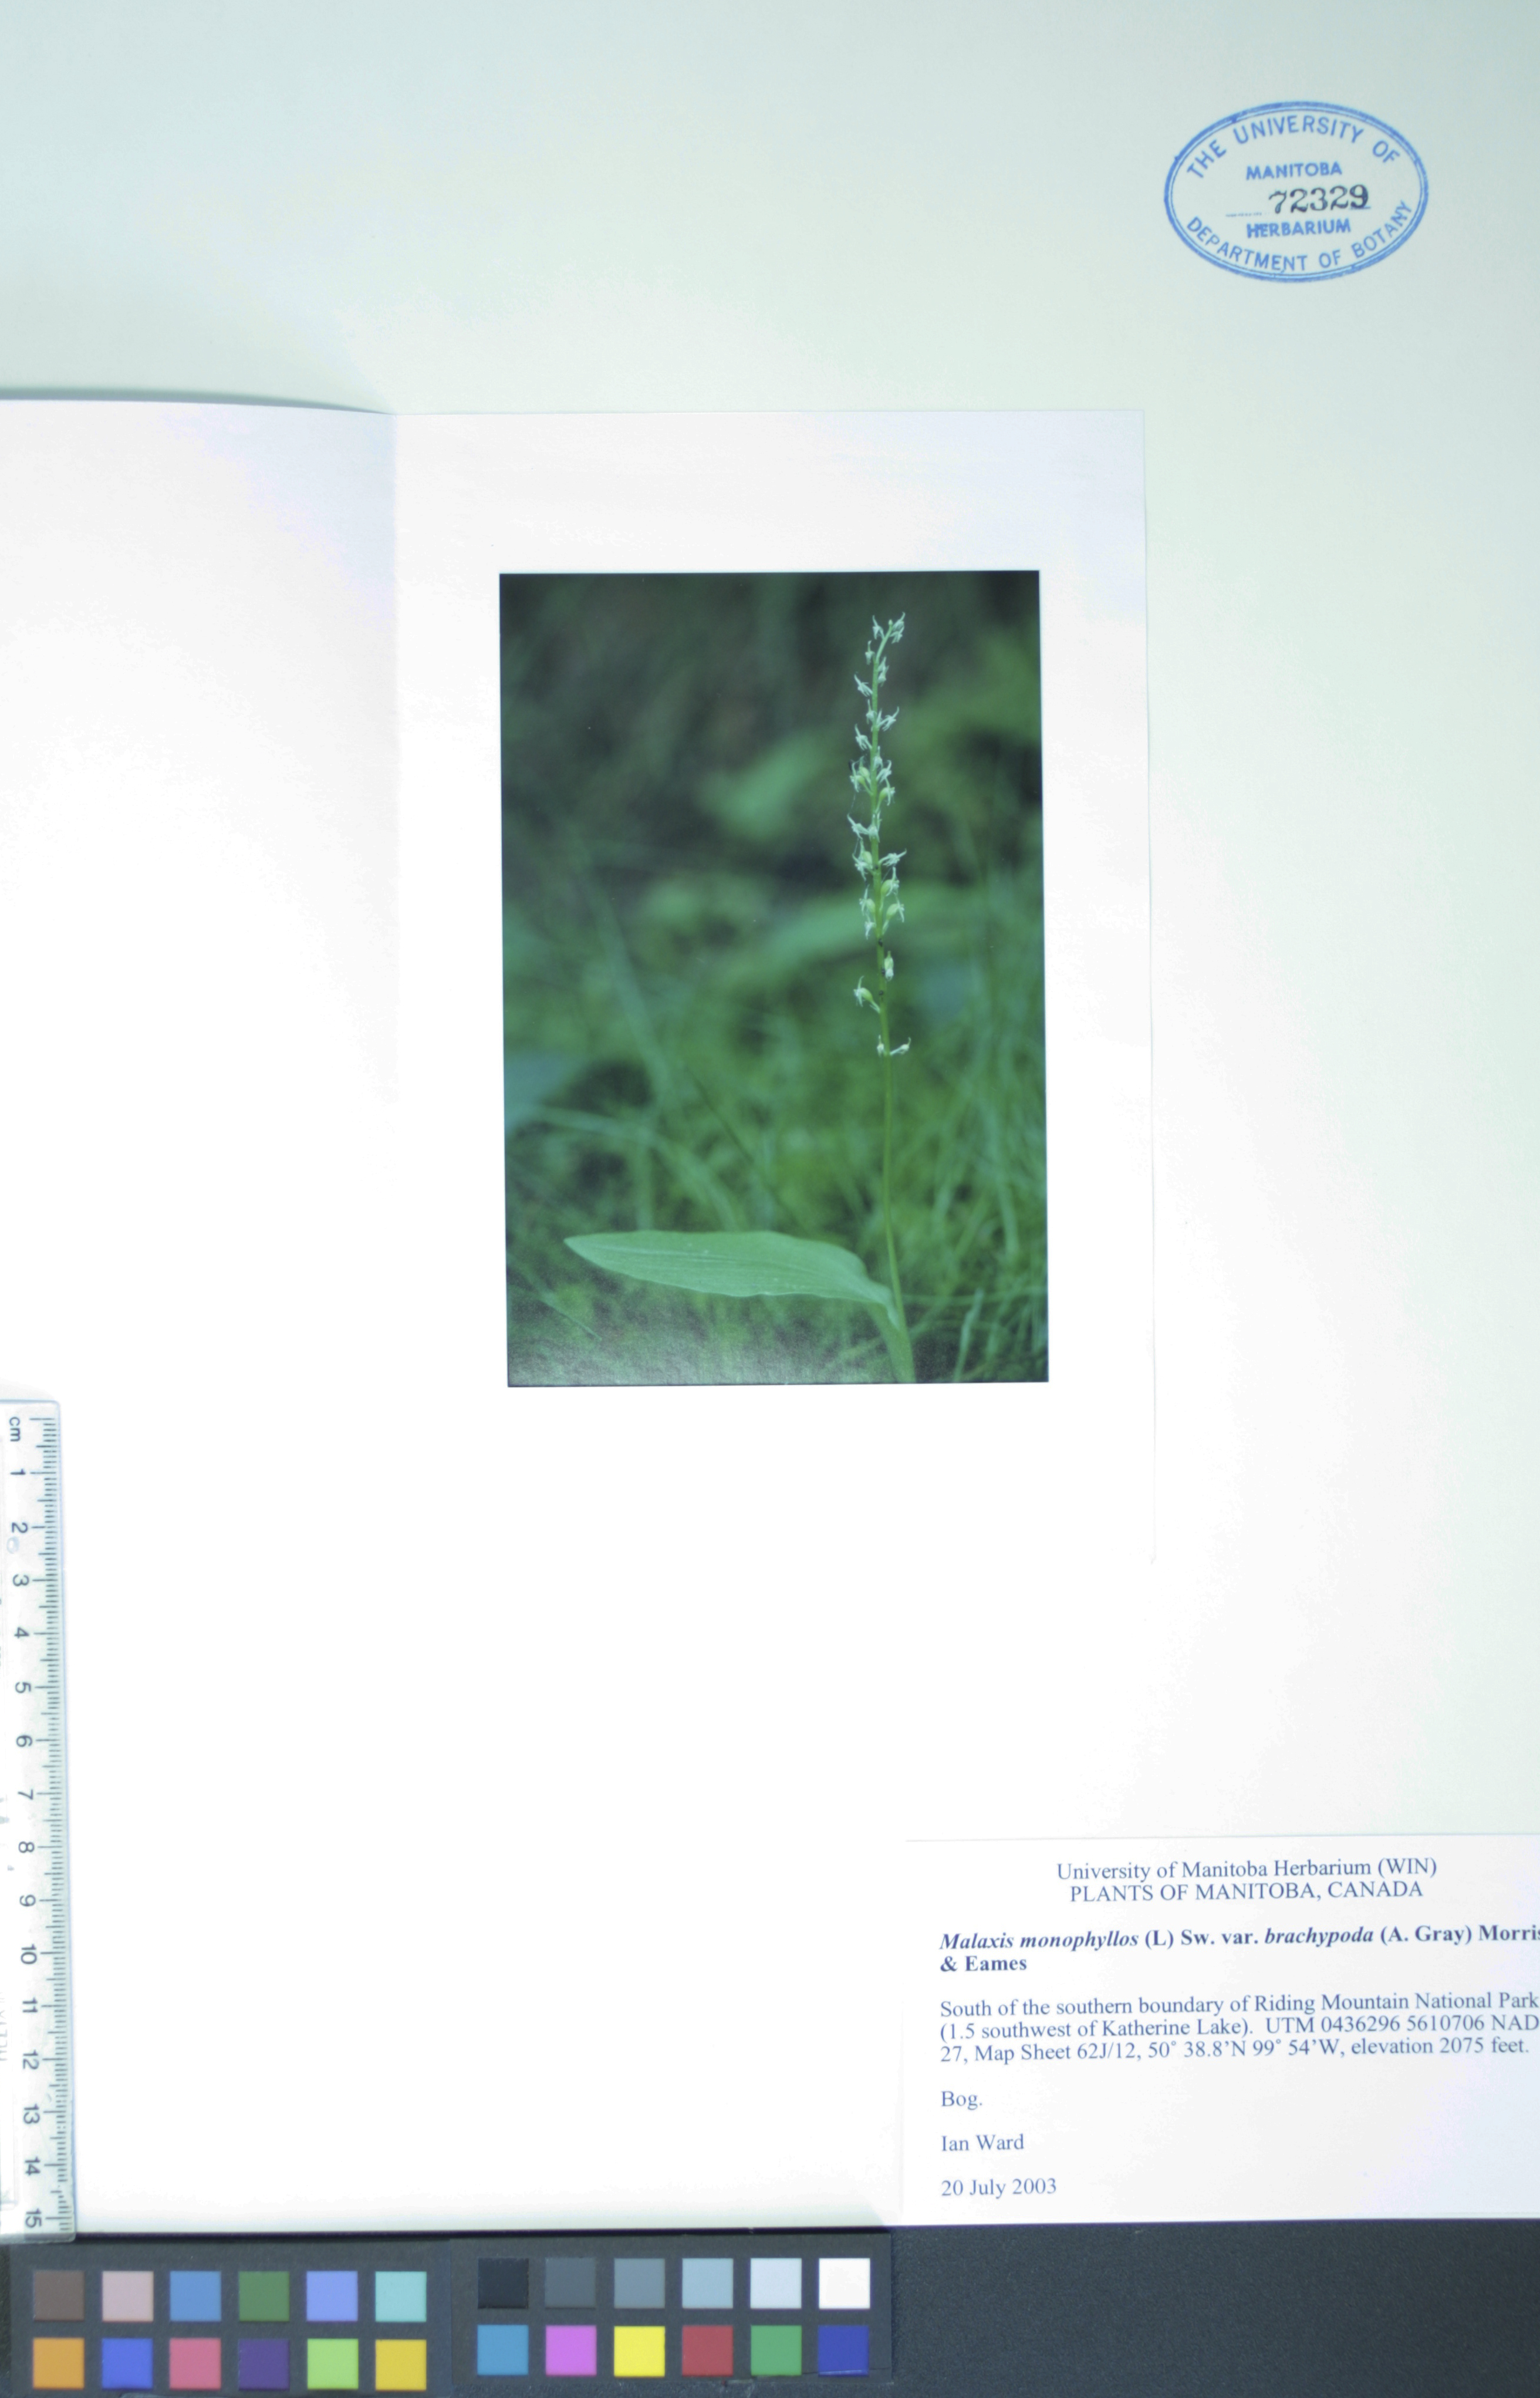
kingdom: Plantae
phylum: Tracheophyta
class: Liliopsida
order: Asparagales
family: Orchidaceae
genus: Malaxis
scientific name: Malaxis monophyllos
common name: White adder's-mouth
